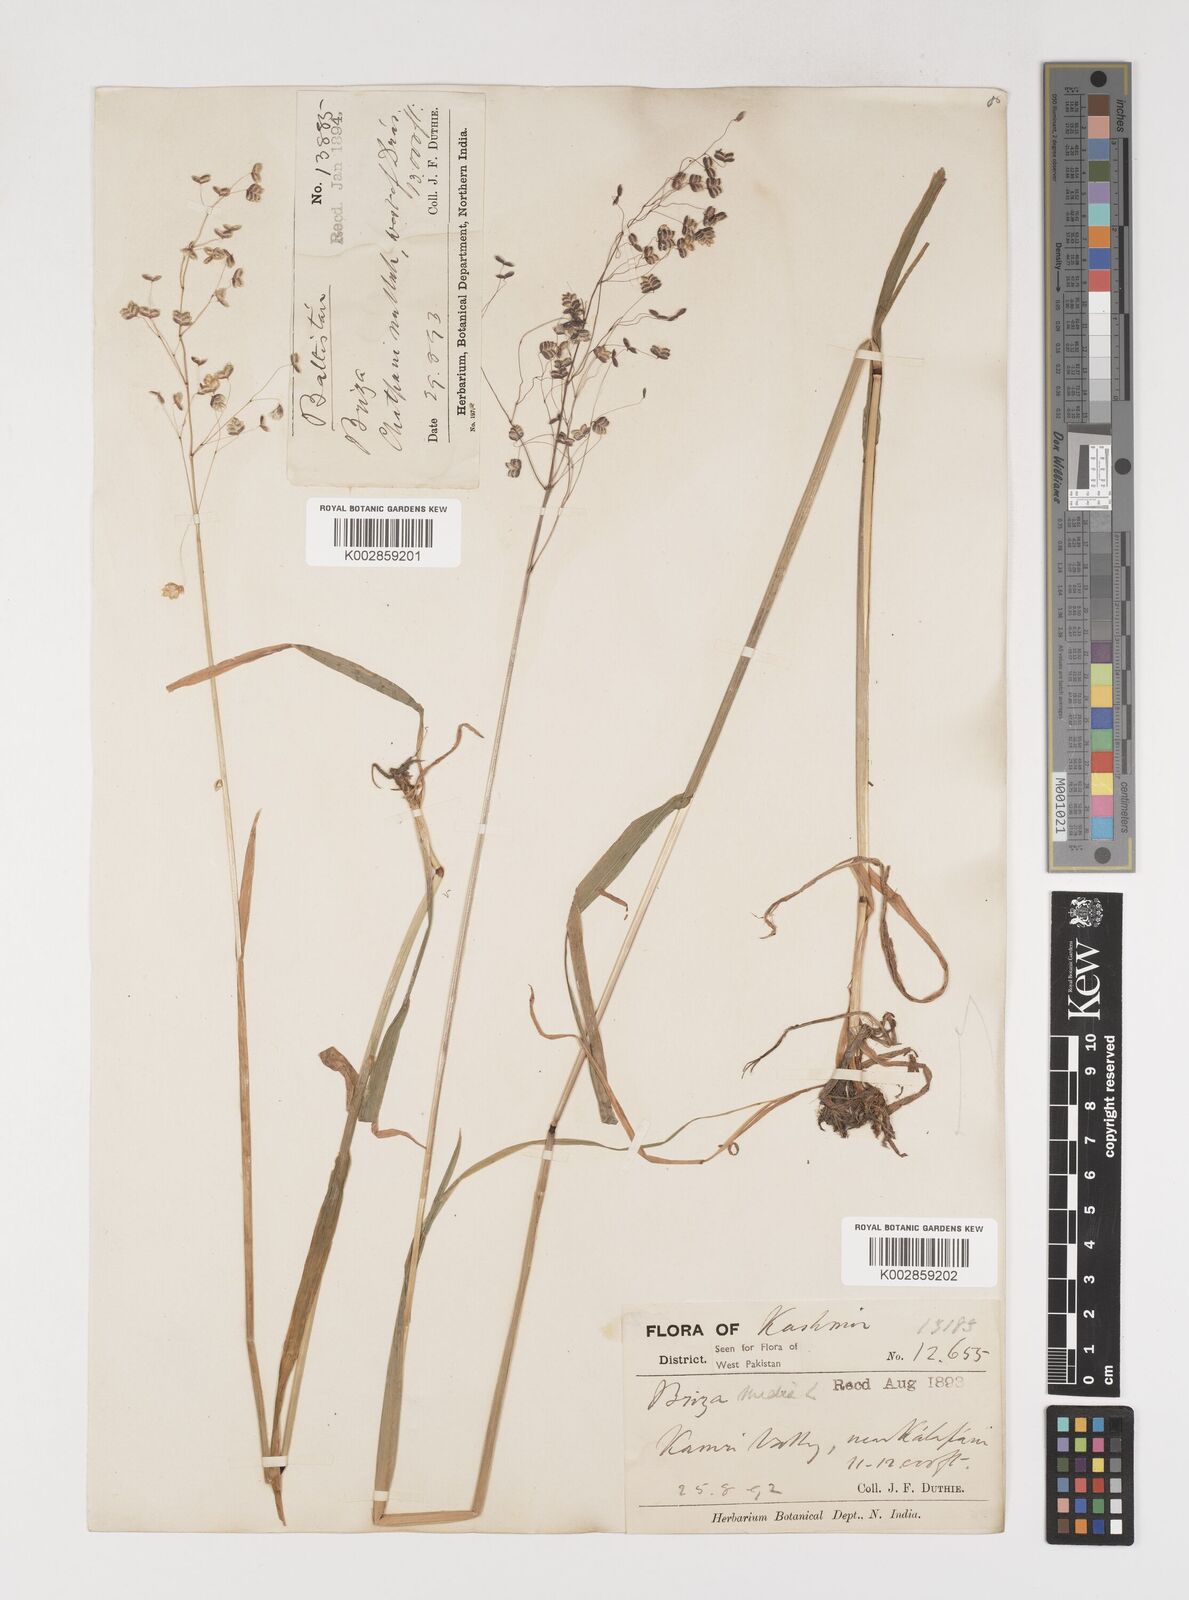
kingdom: Plantae
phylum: Tracheophyta
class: Liliopsida
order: Poales
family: Poaceae
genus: Briza
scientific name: Briza media
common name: Quaking grass
